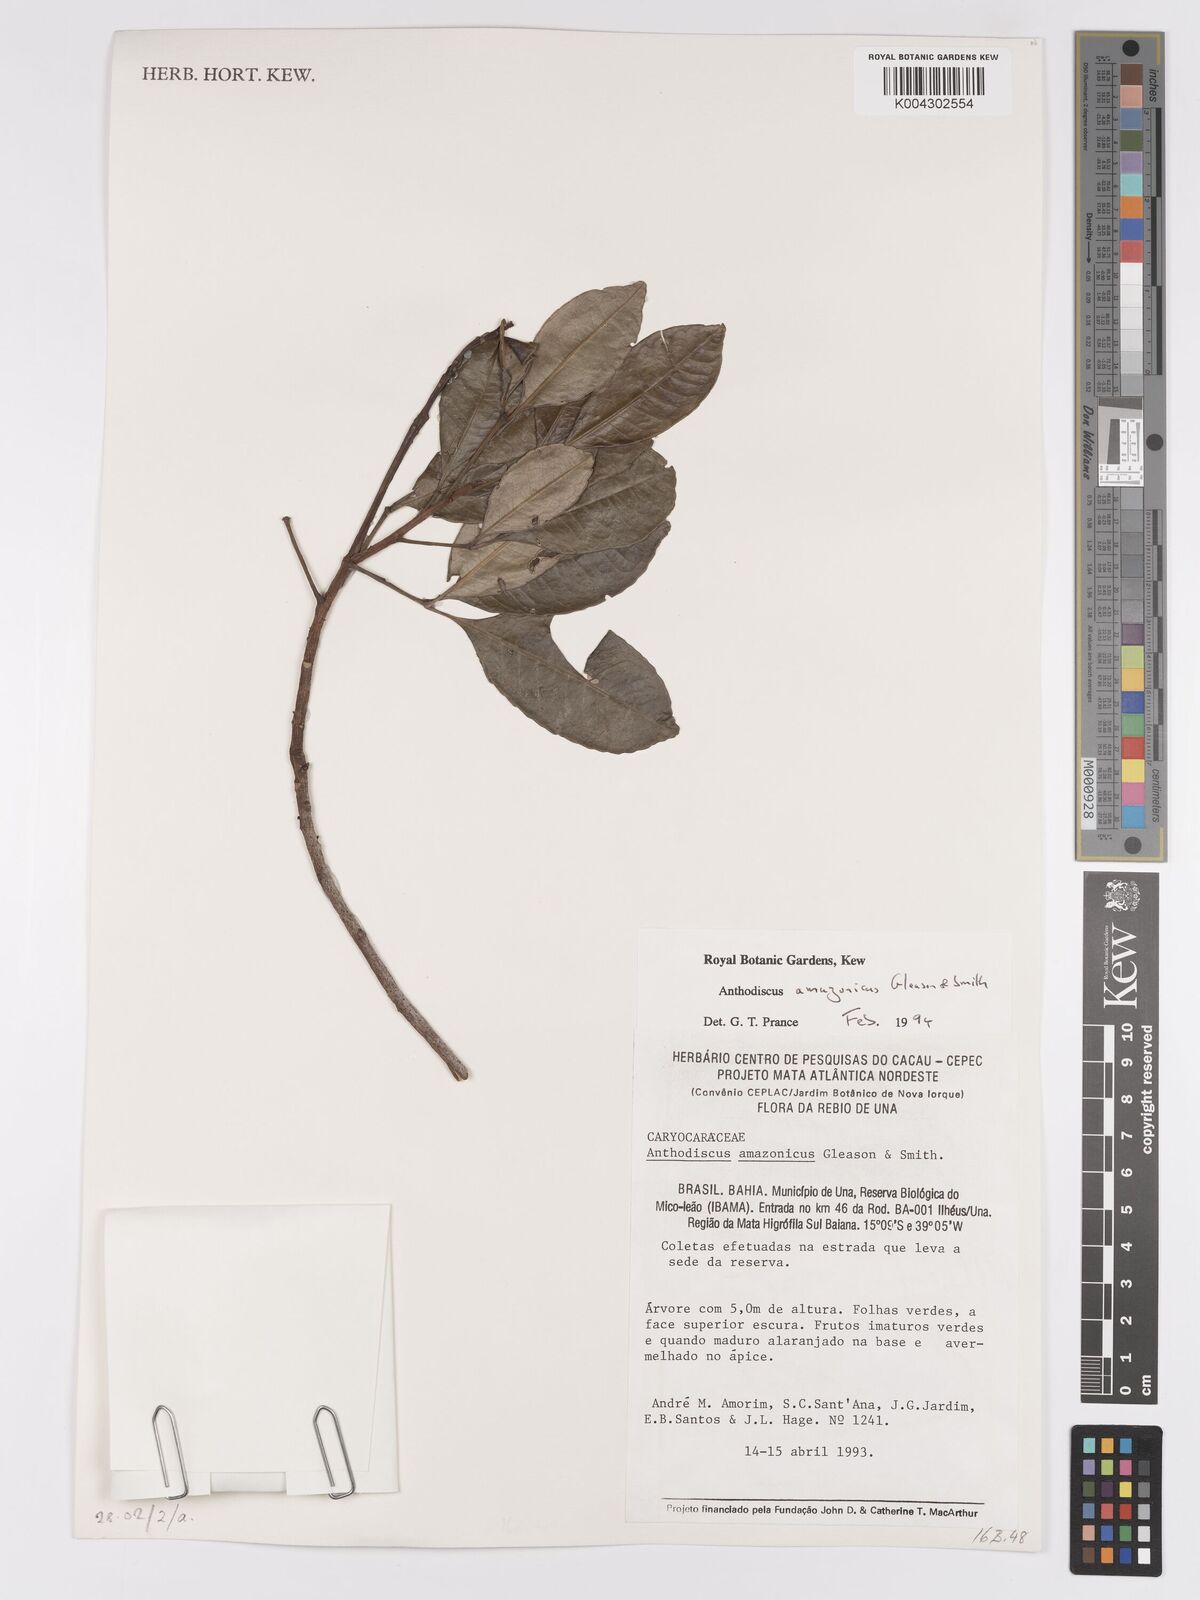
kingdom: Plantae
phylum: Tracheophyta
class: Magnoliopsida
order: Malpighiales
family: Caryocaraceae
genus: Anthodiscus
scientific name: Anthodiscus amazonicus
